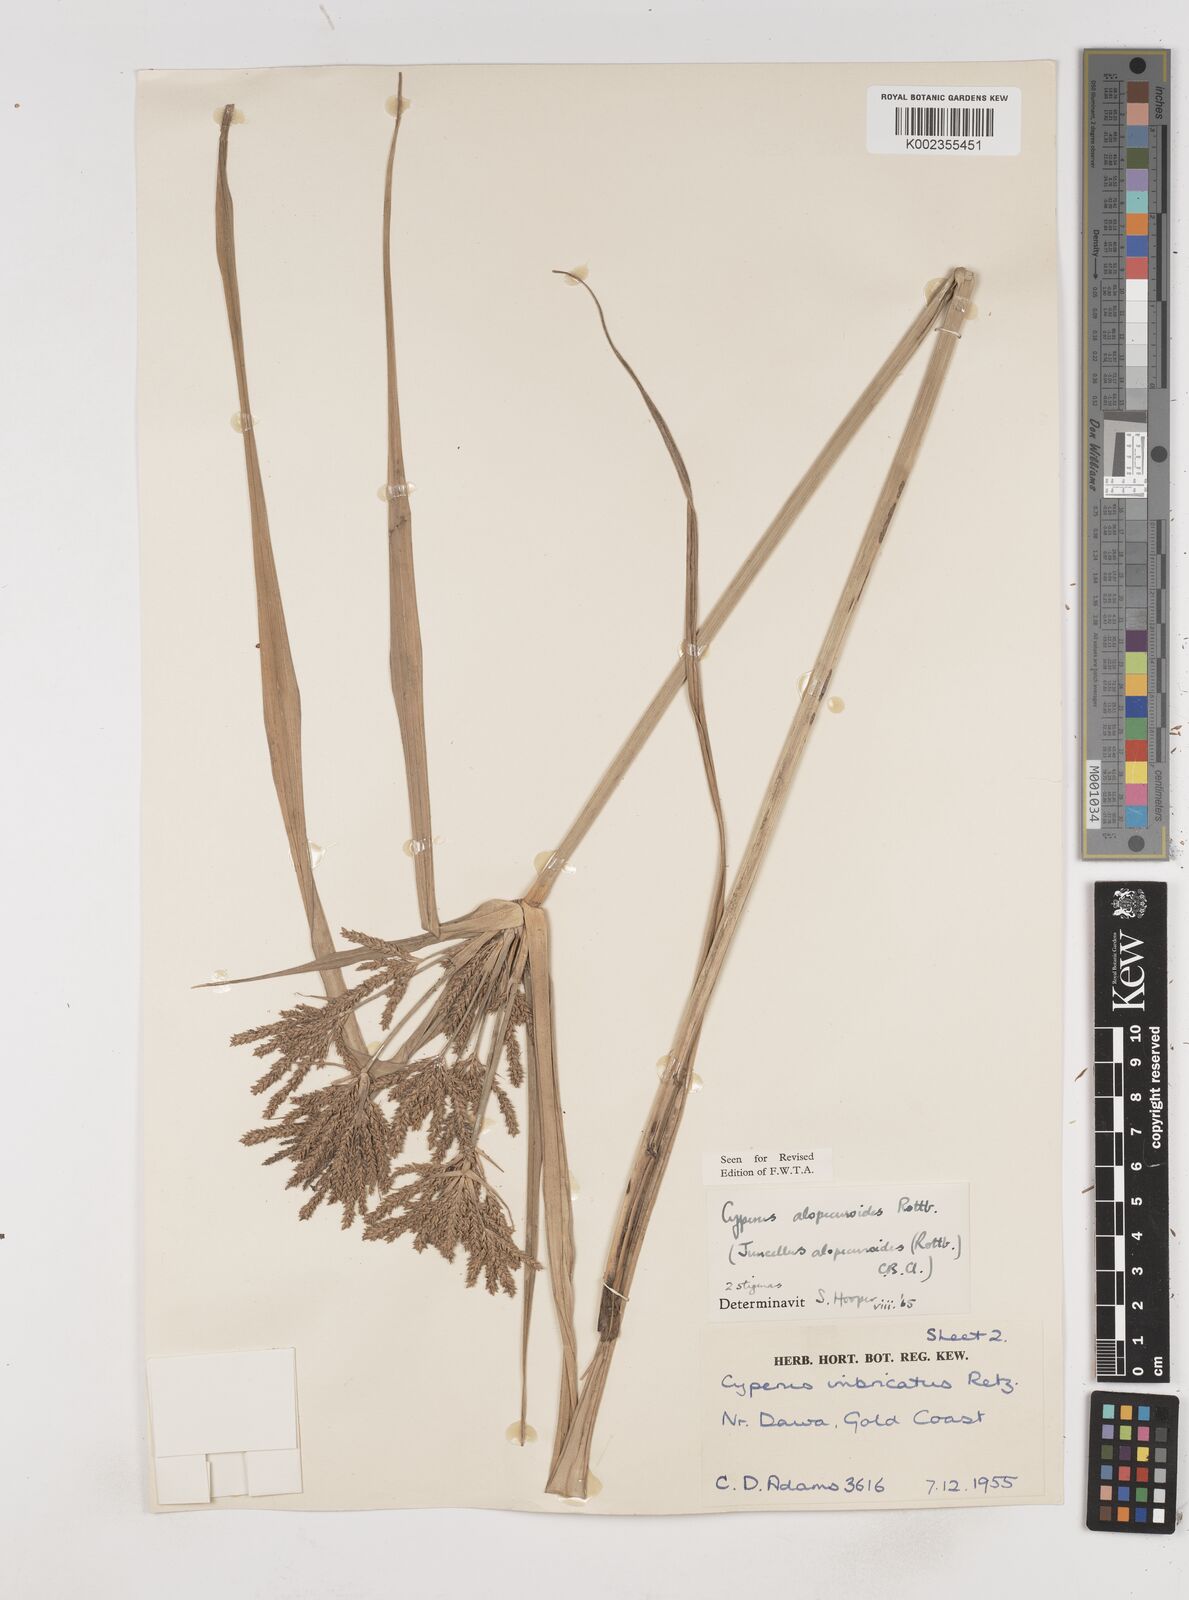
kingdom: Plantae
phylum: Tracheophyta
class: Liliopsida
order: Poales
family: Cyperaceae
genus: Cyperus
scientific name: Cyperus alopecuroides
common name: Foxtail flatsedge
